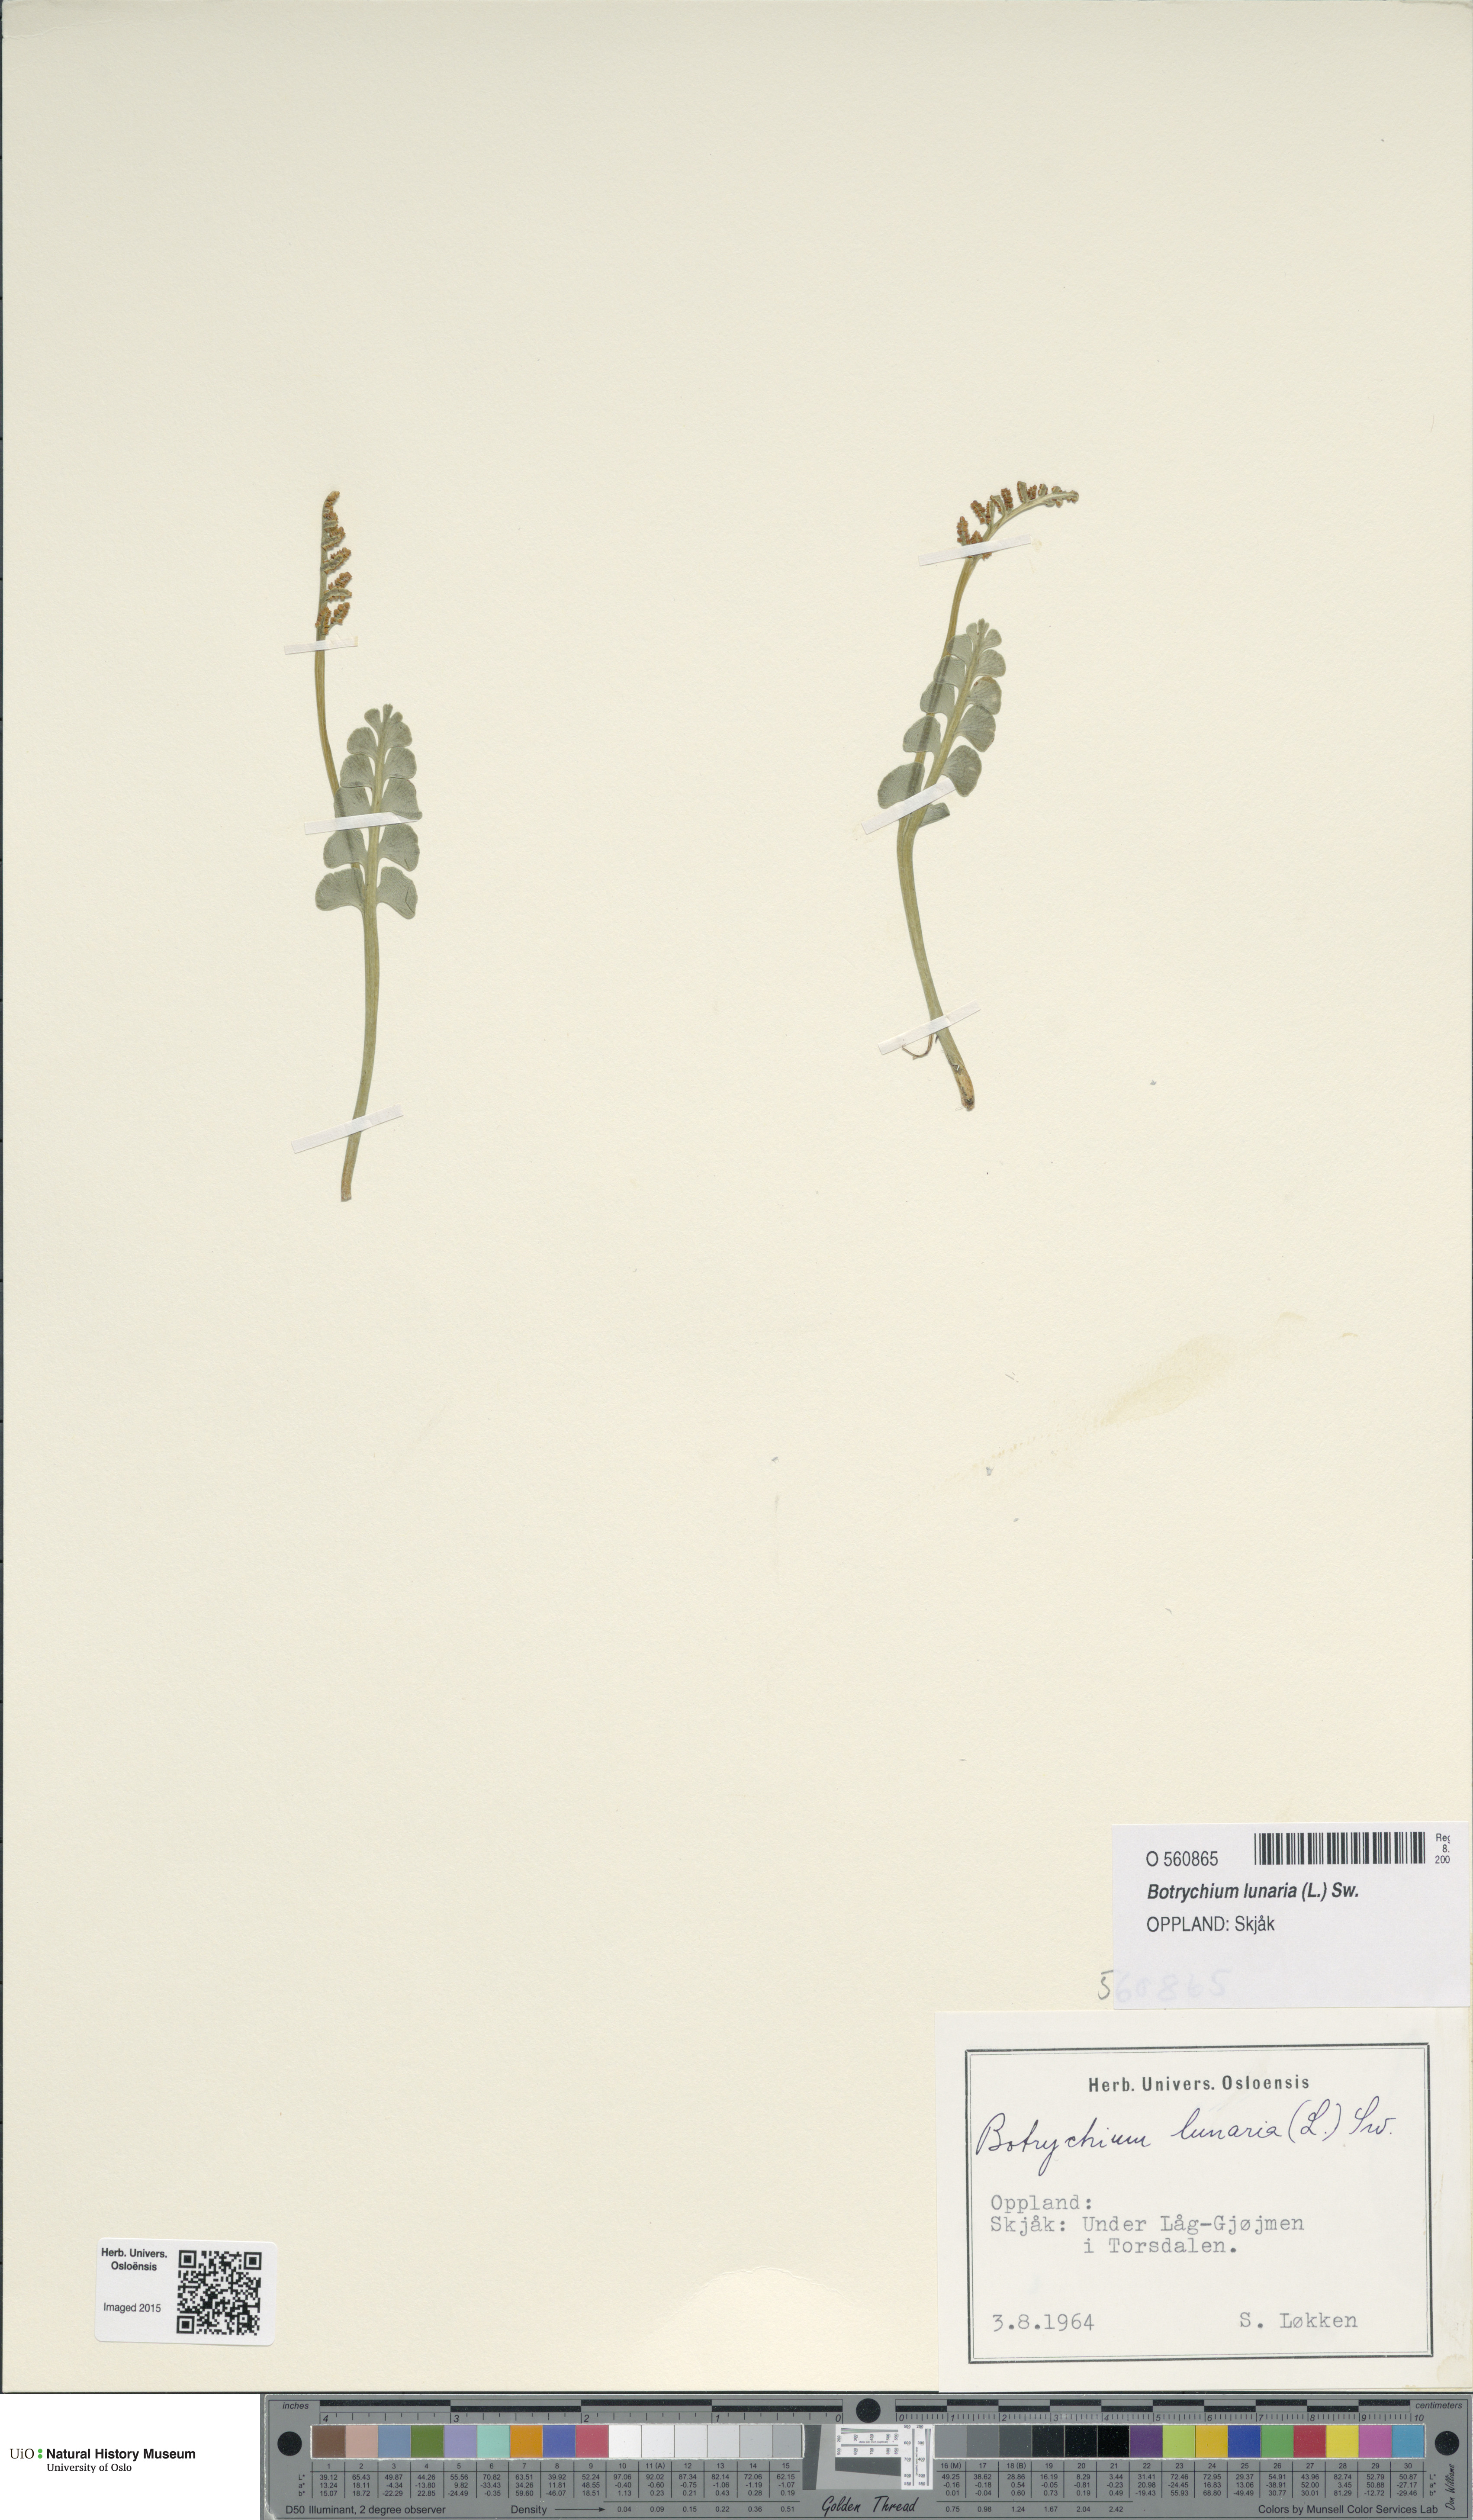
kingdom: Plantae
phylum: Tracheophyta
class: Polypodiopsida
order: Ophioglossales
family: Ophioglossaceae
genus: Botrychium
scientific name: Botrychium lunaria
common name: Moonwort
